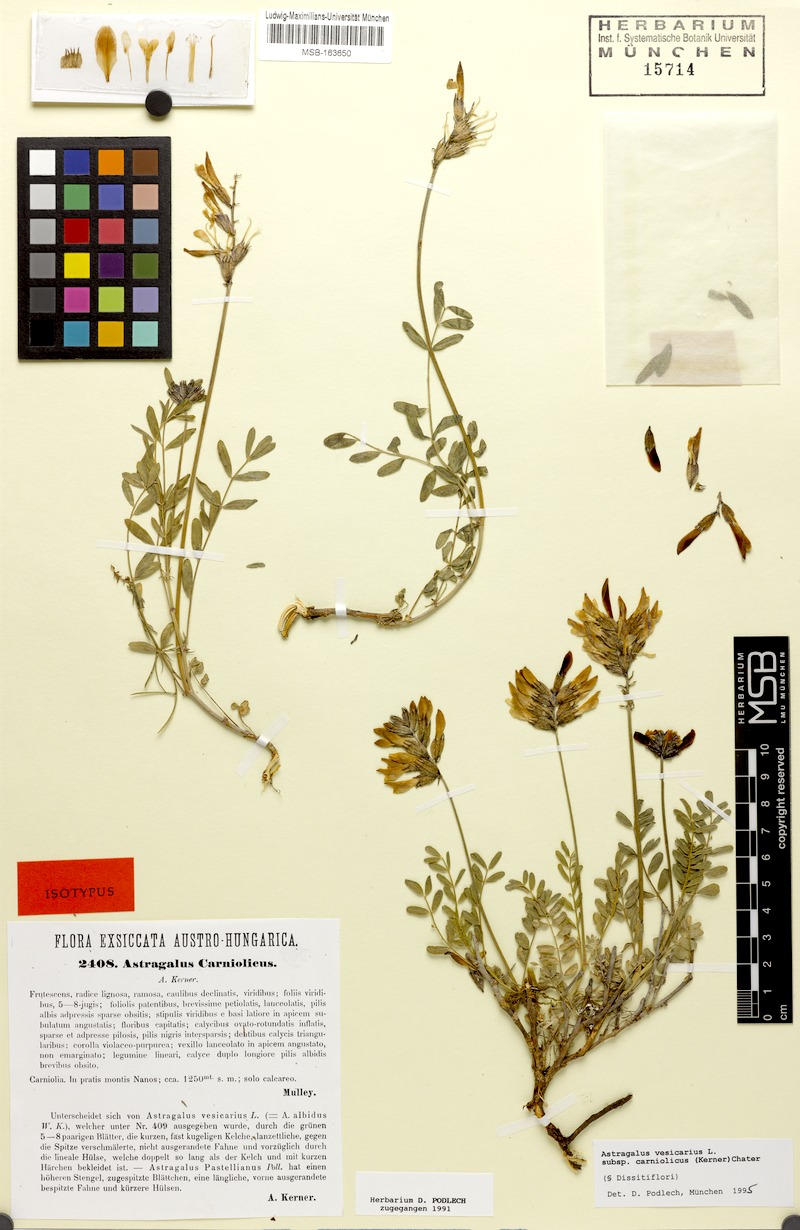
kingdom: Plantae
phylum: Tracheophyta
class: Magnoliopsida
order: Fabales
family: Fabaceae
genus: Astragalus
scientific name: Astragalus vesicarius
